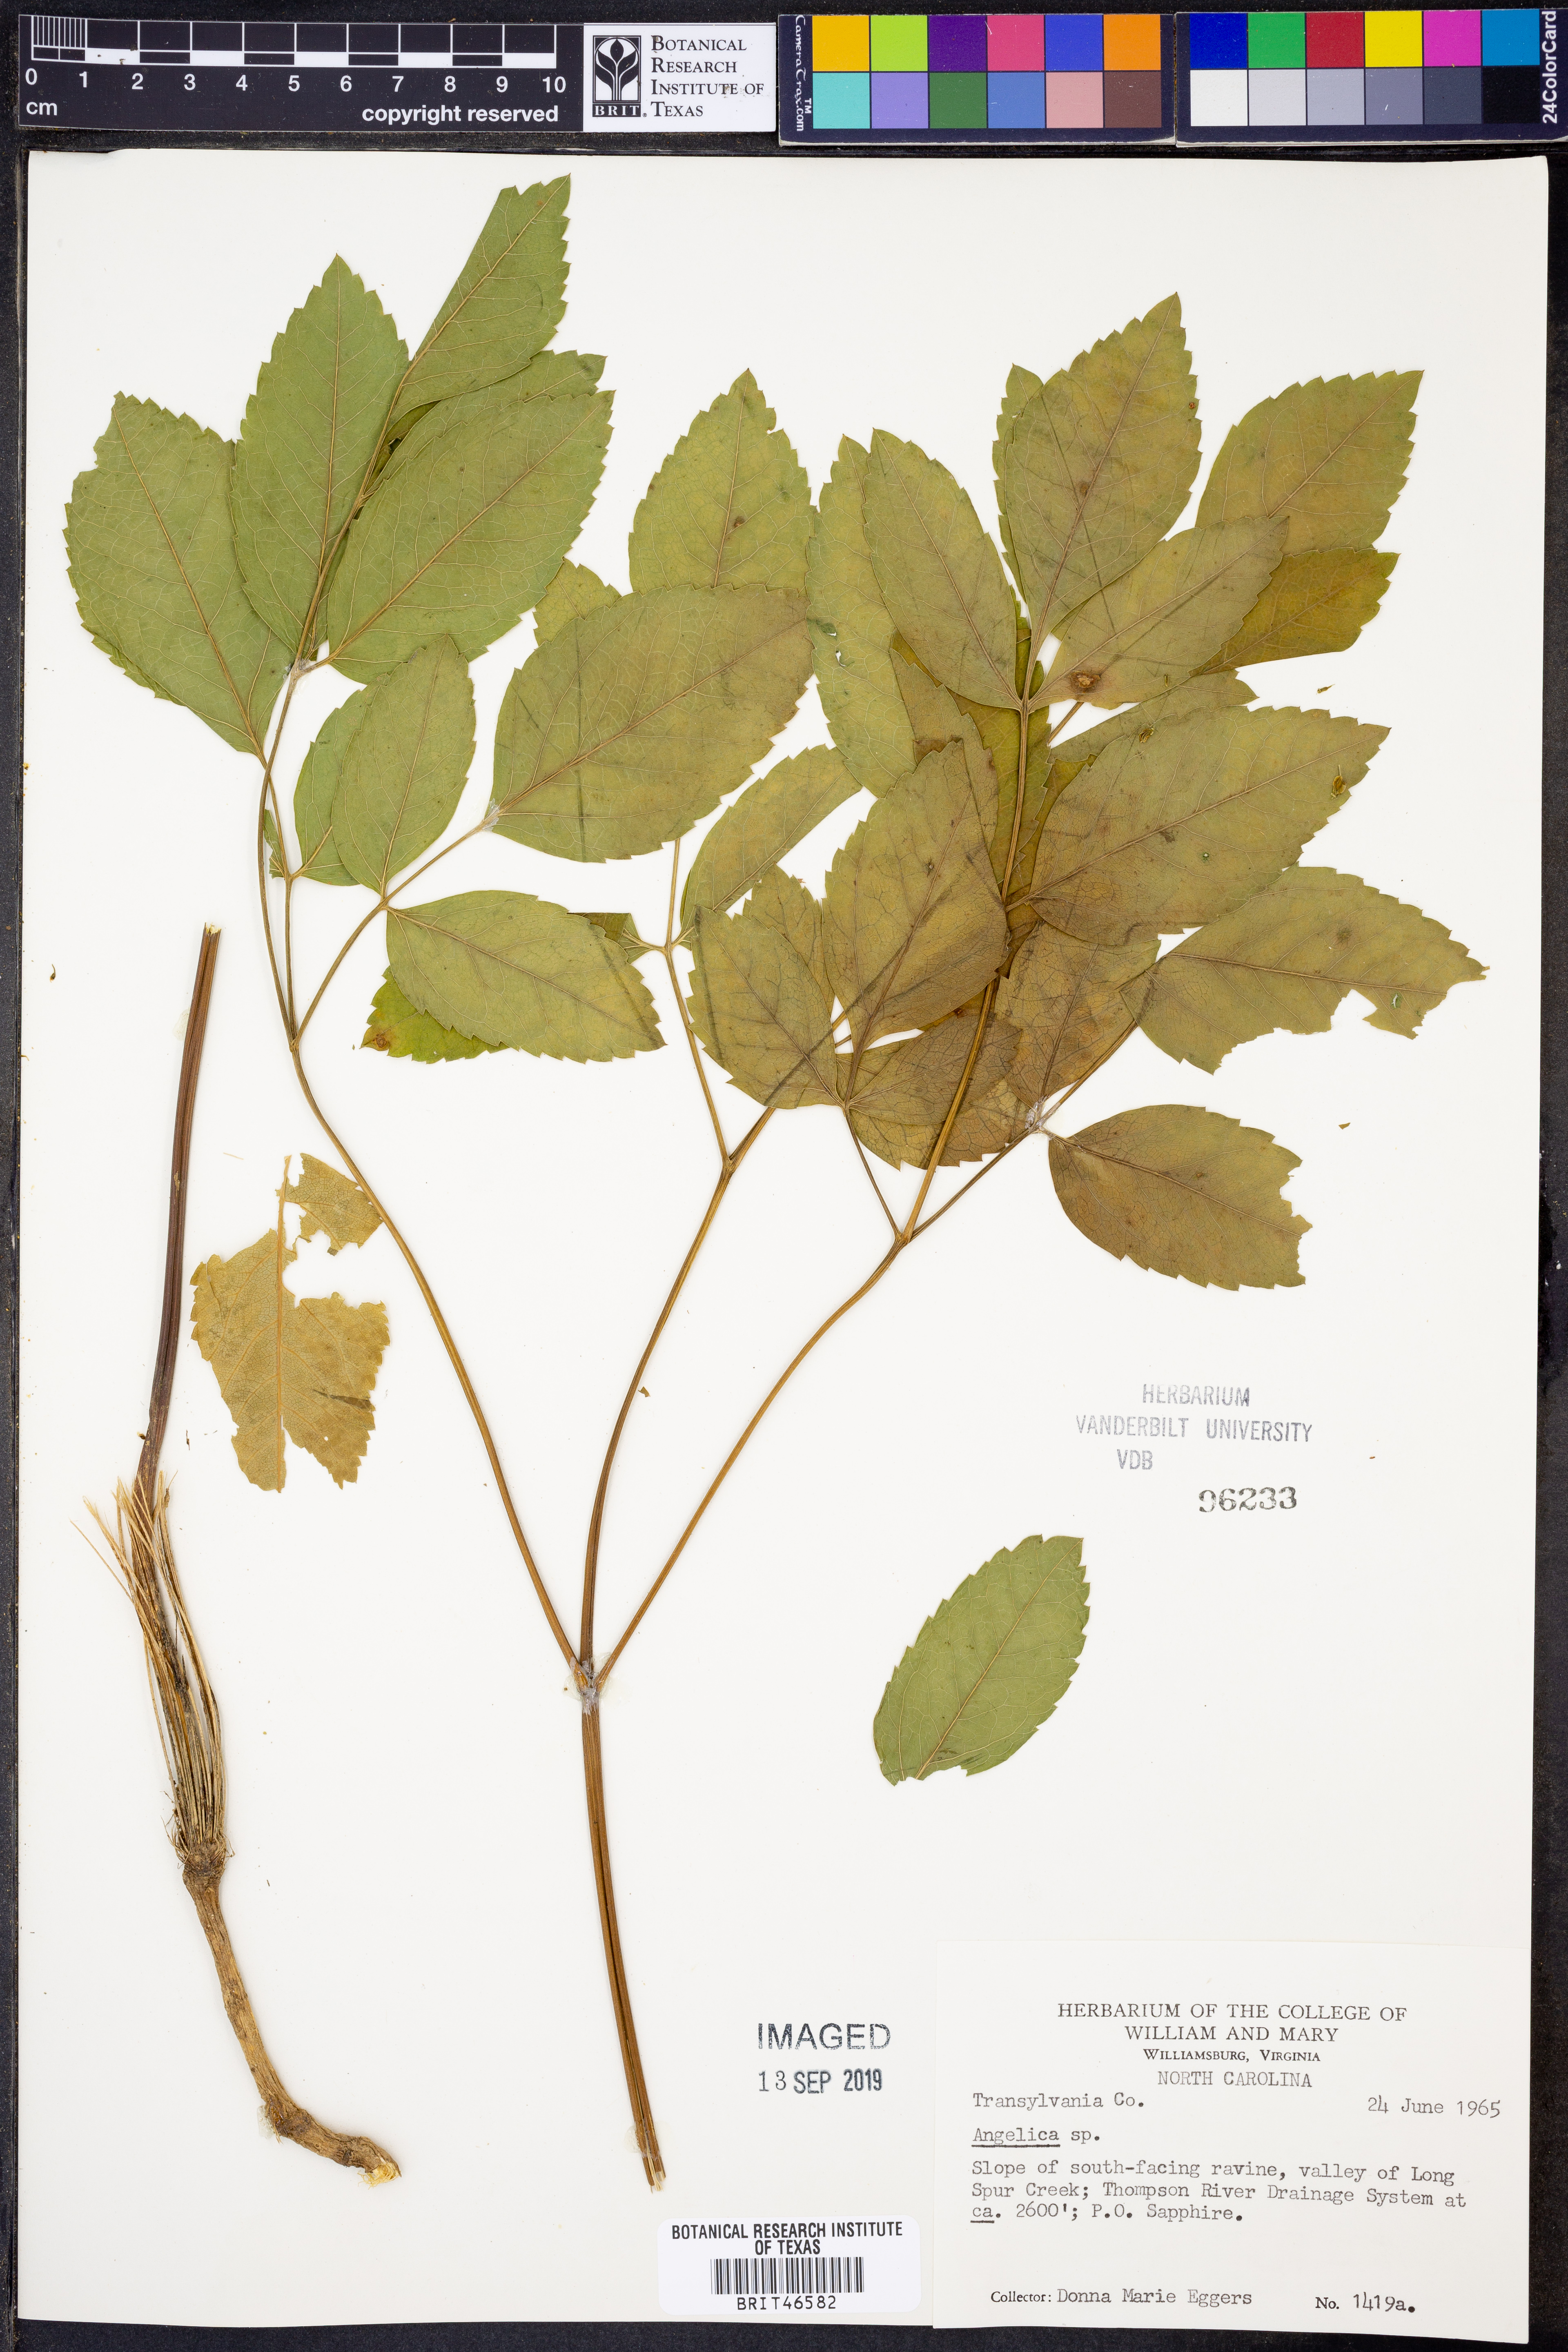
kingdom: Plantae
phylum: Tracheophyta
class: Magnoliopsida
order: Apiales
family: Apiaceae
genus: Angelica
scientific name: Angelica
